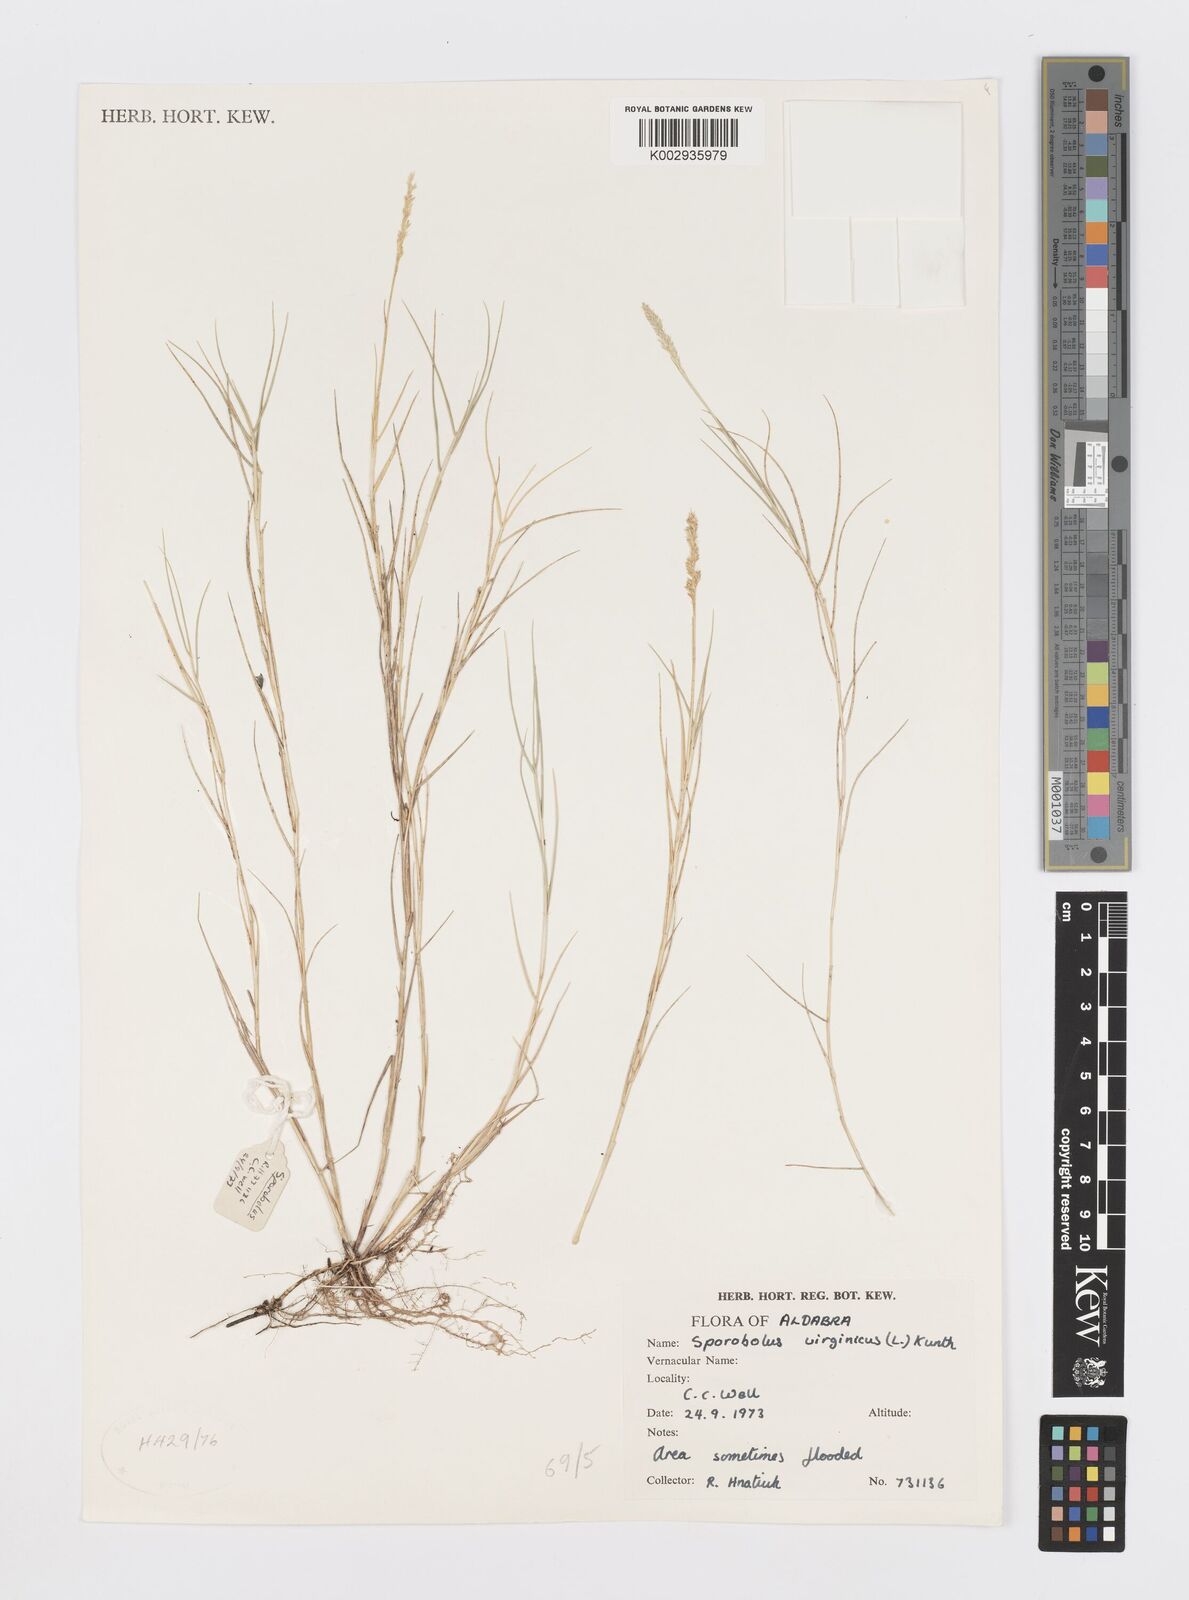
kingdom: Plantae
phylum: Tracheophyta
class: Liliopsida
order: Poales
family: Poaceae
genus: Sporobolus
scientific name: Sporobolus virginicus
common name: Beach dropseed
